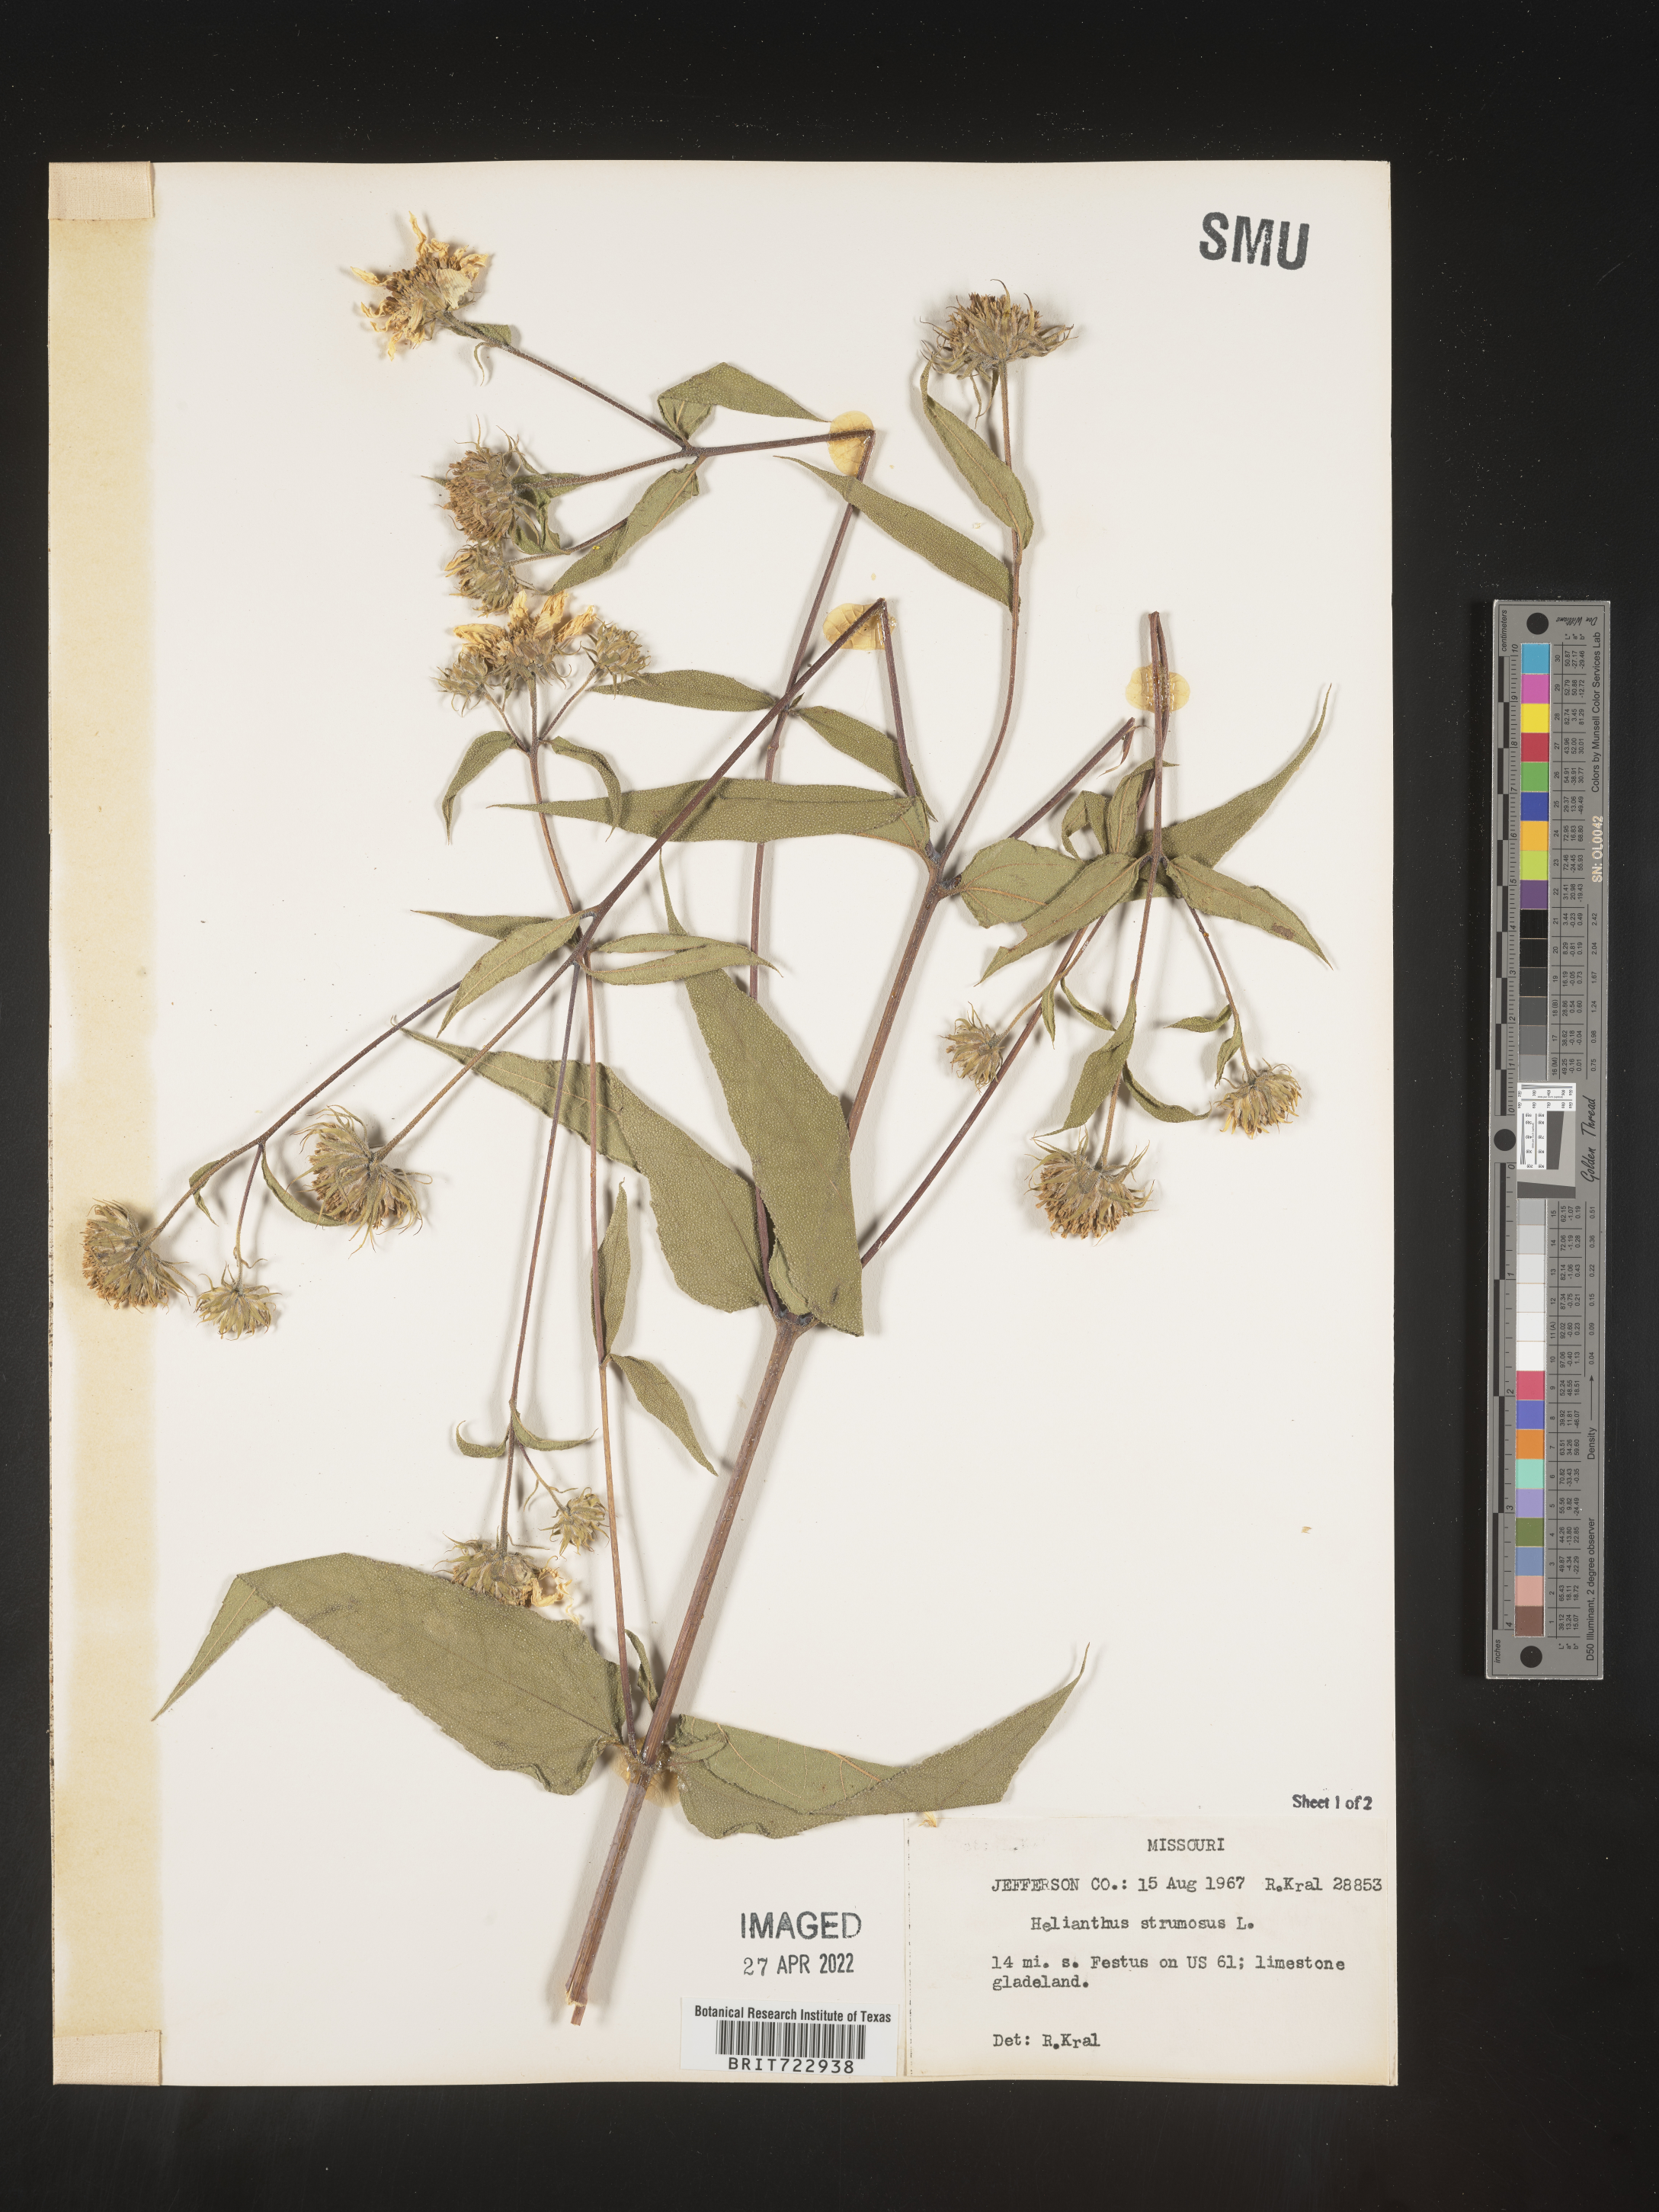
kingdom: Plantae
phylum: Tracheophyta
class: Magnoliopsida
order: Asterales
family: Asteraceae
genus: Helianthus
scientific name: Helianthus strumosus
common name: Pale-leaved sunflower
